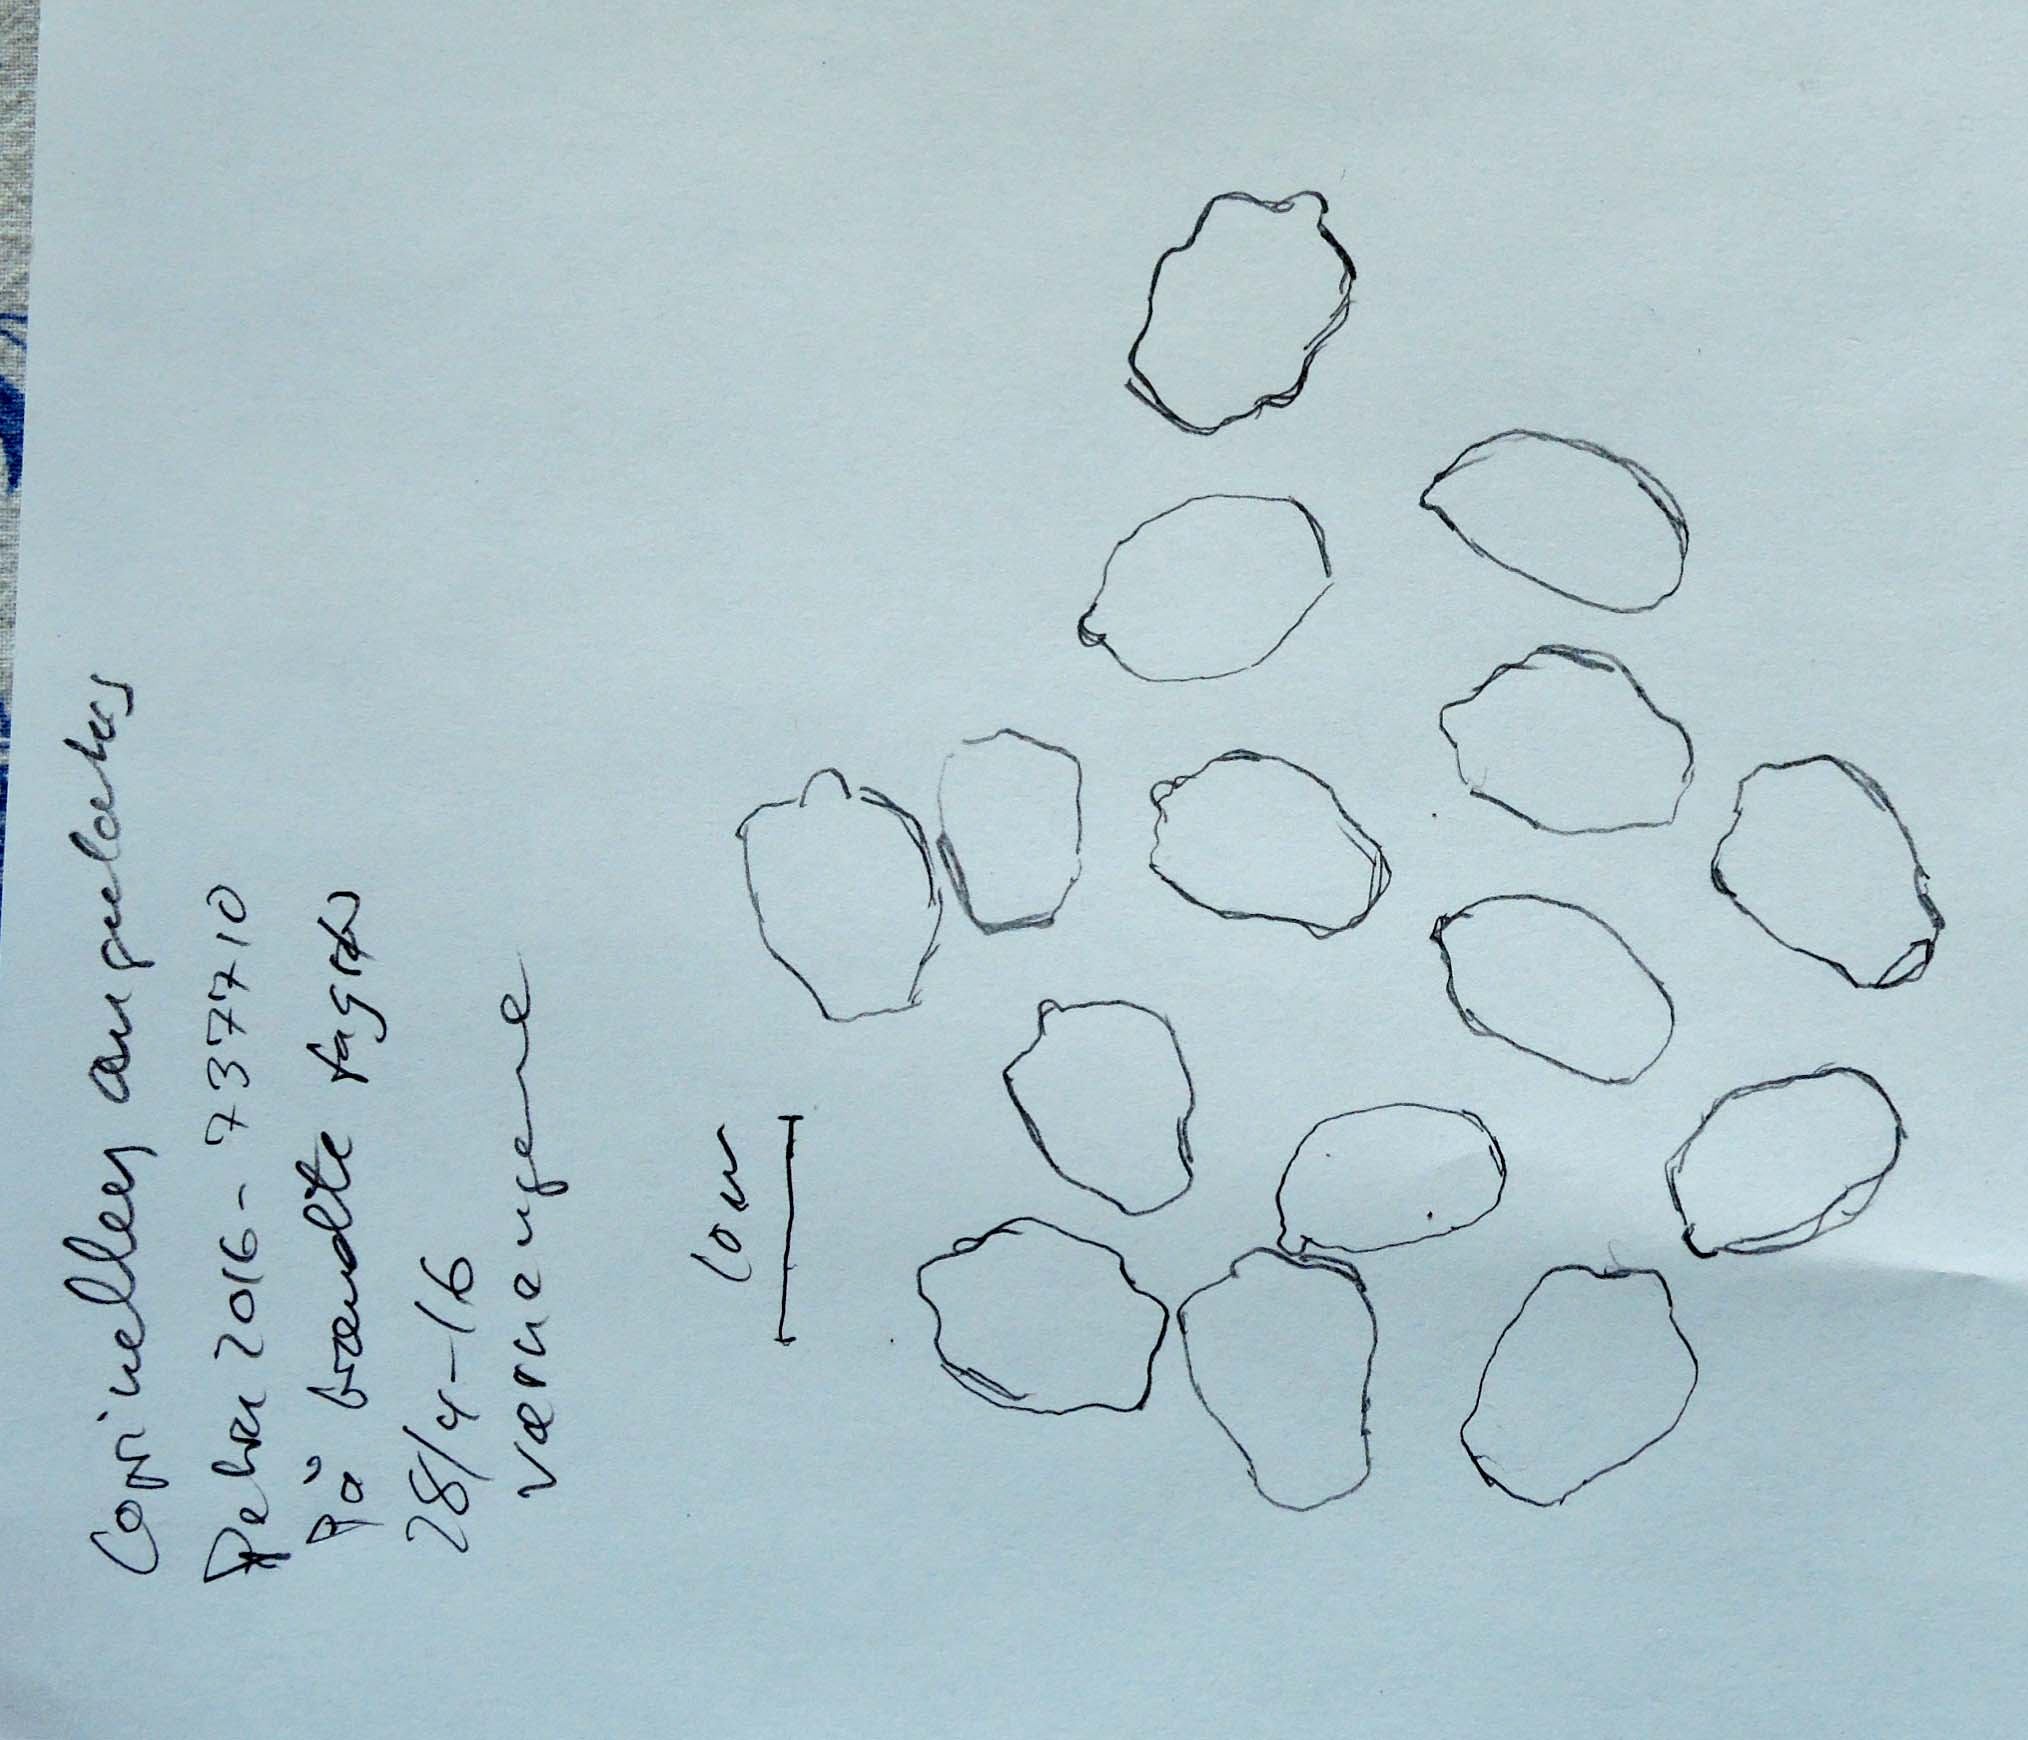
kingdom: Fungi
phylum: Basidiomycota
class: Agaricomycetes
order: Agaricales
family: Psathyrellaceae
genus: Tulosesus
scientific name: Tulosesus angulatus
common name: kul-blækhat
